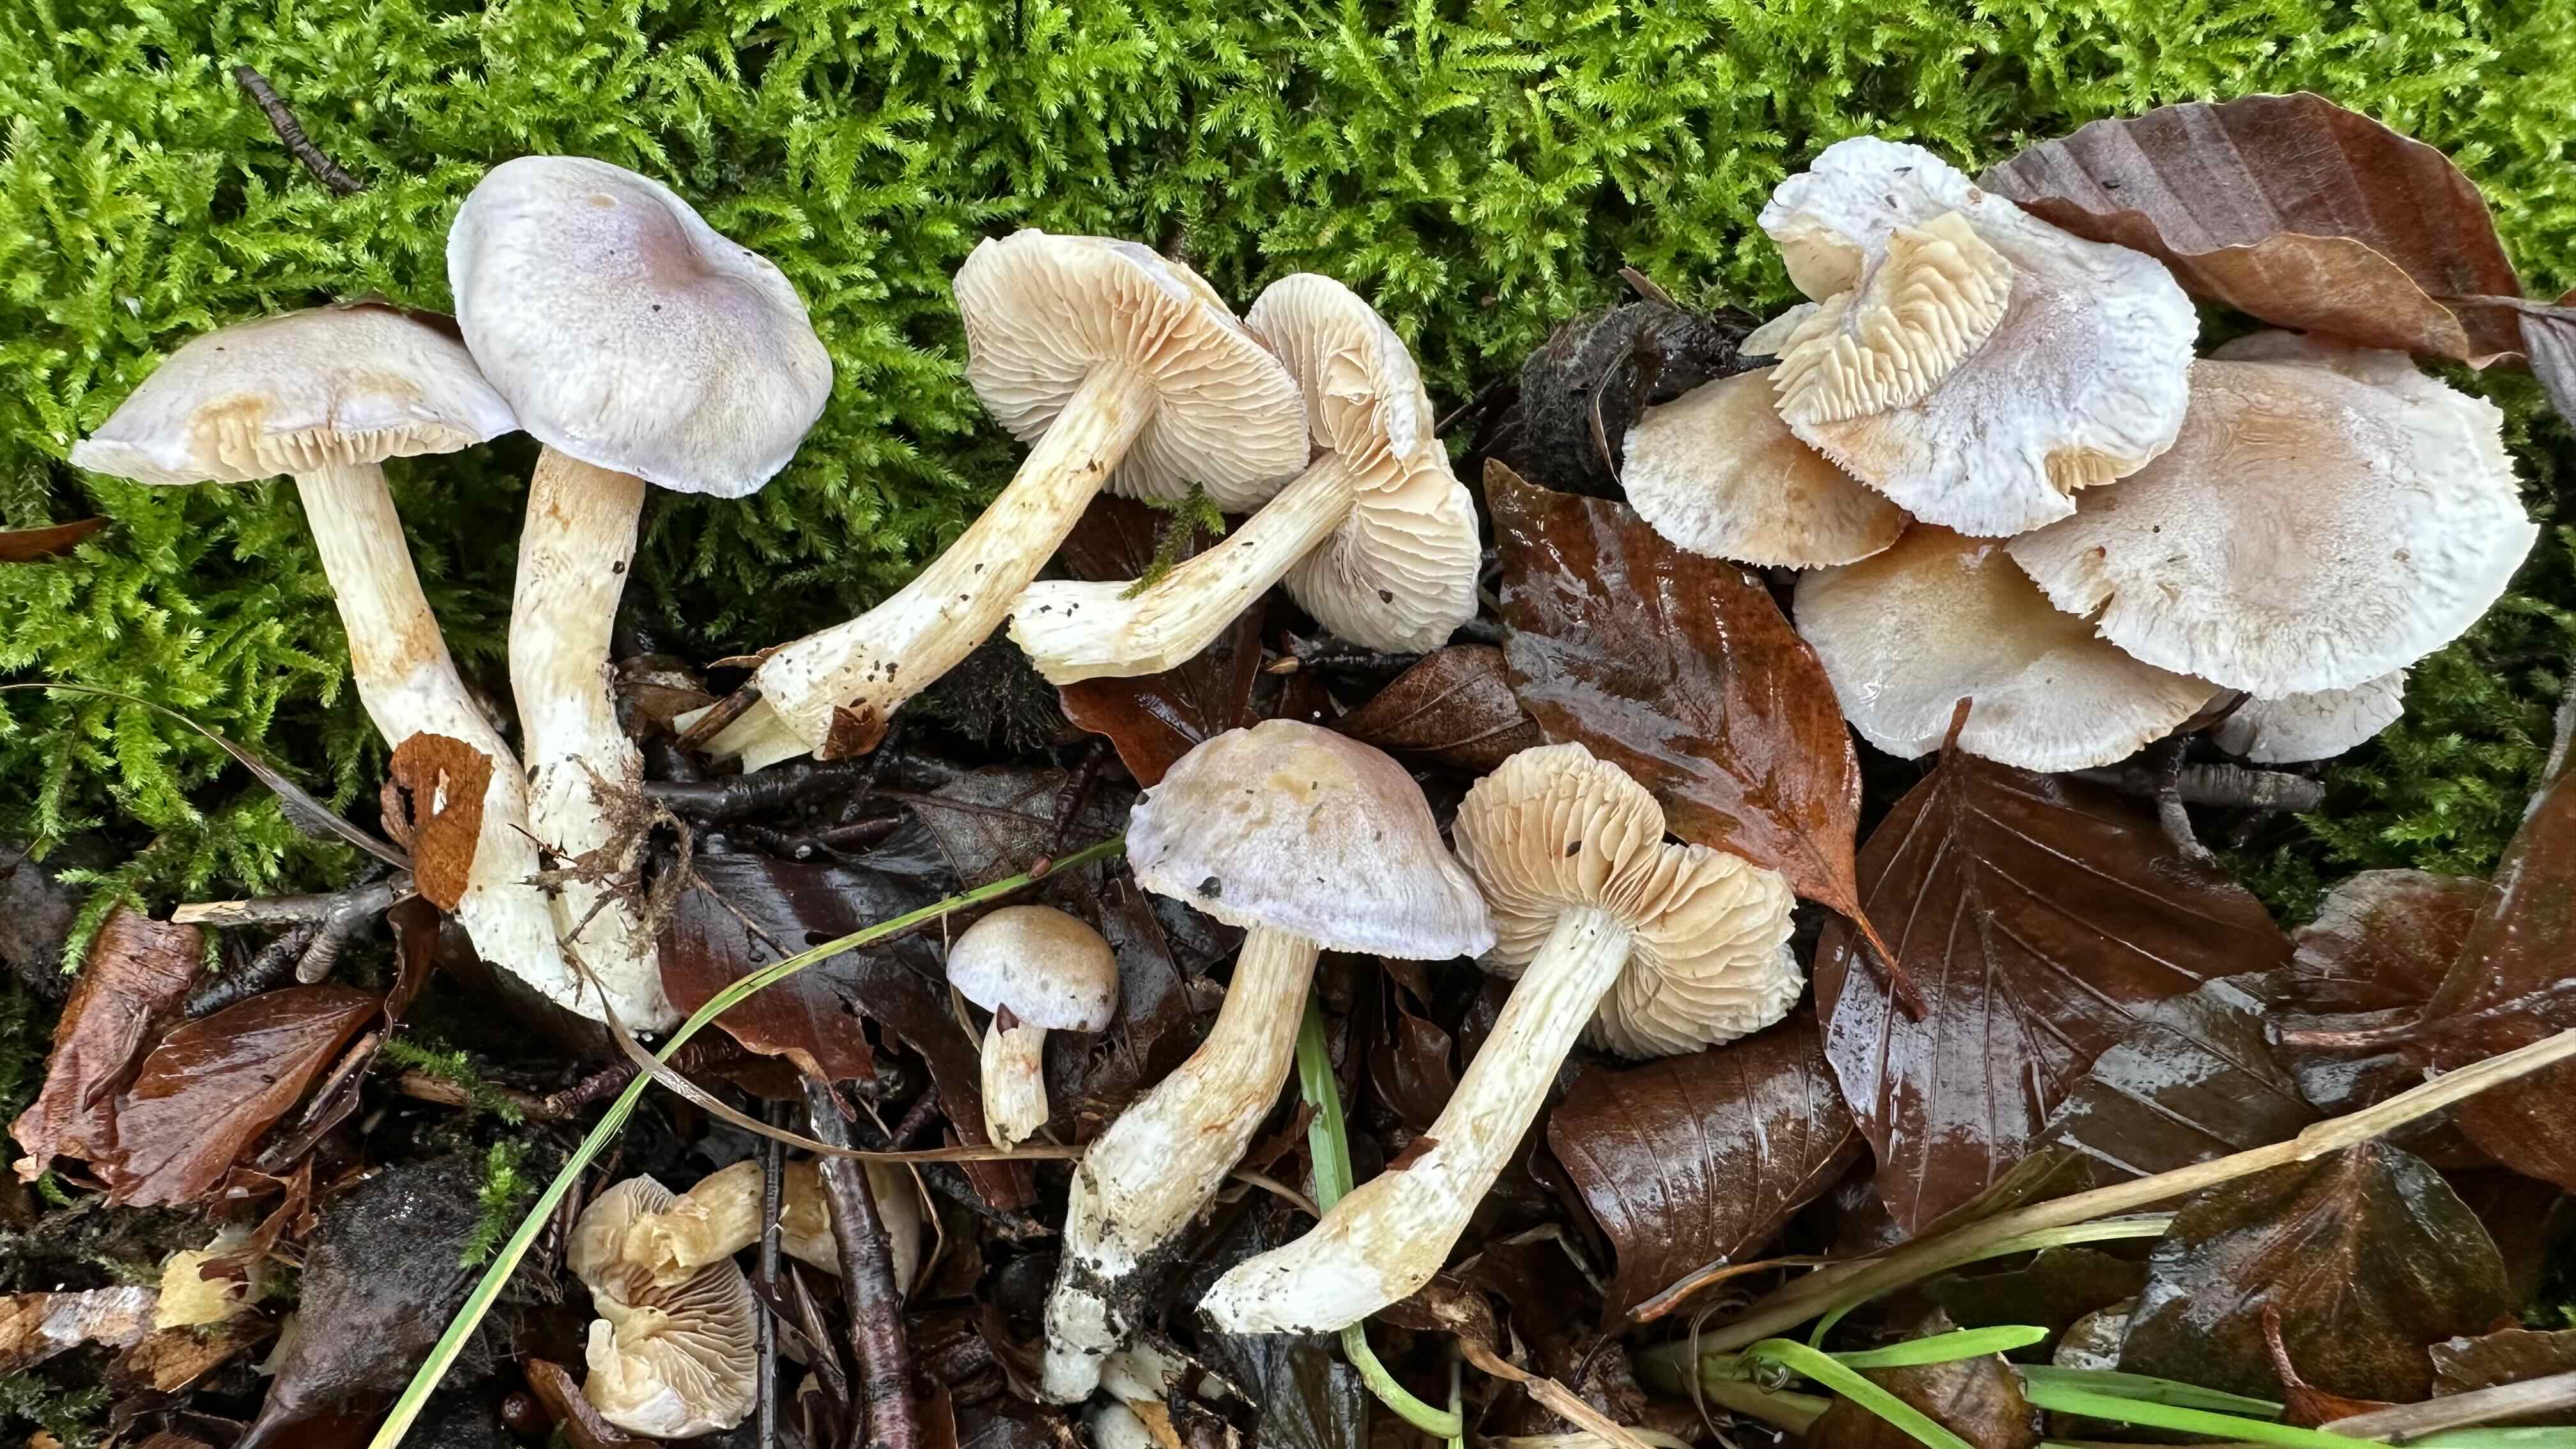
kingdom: Fungi
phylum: Basidiomycota
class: Agaricomycetes
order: Agaricales
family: Cortinariaceae
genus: Thaxterogaster
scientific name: Thaxterogaster croceocoeruleus
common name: blågullig slørhat
